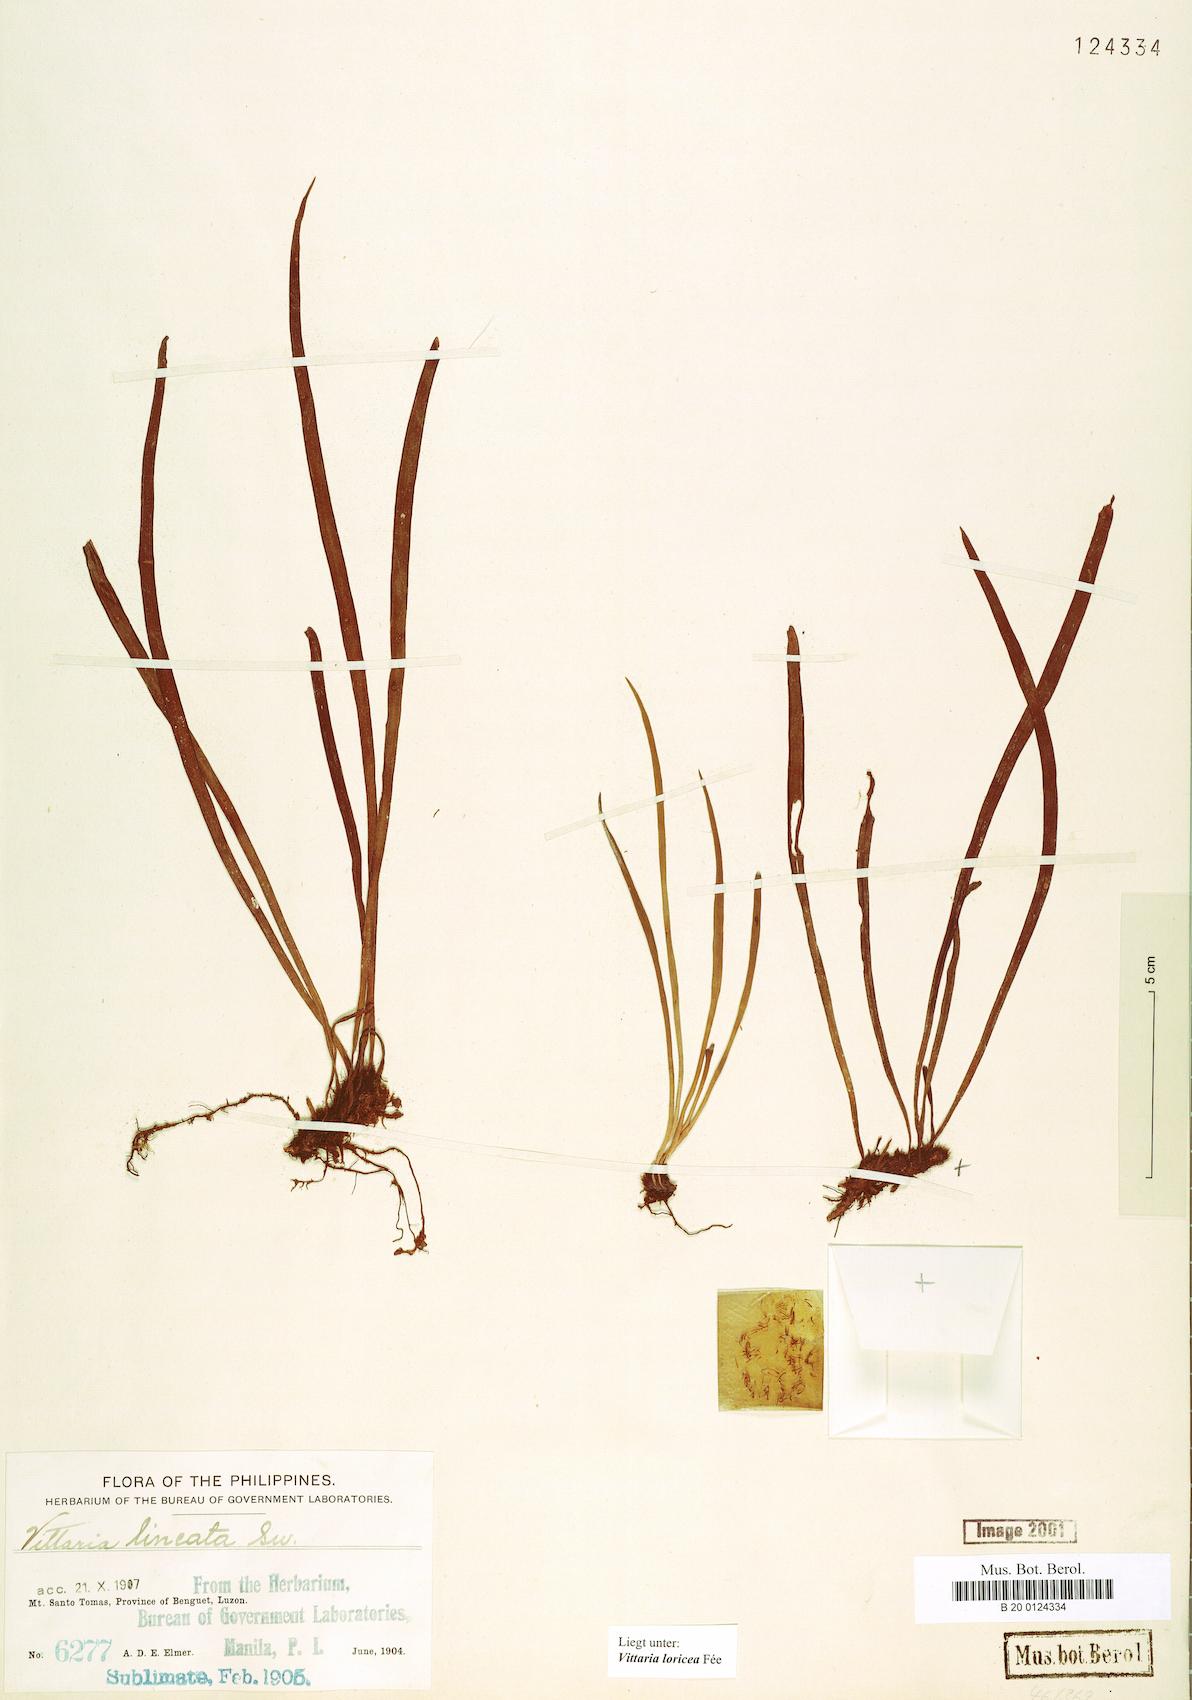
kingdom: Plantae
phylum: Tracheophyta
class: Polypodiopsida
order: Polypodiales
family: Pteridaceae
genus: Haplopteris
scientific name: Haplopteris zosterifolia
